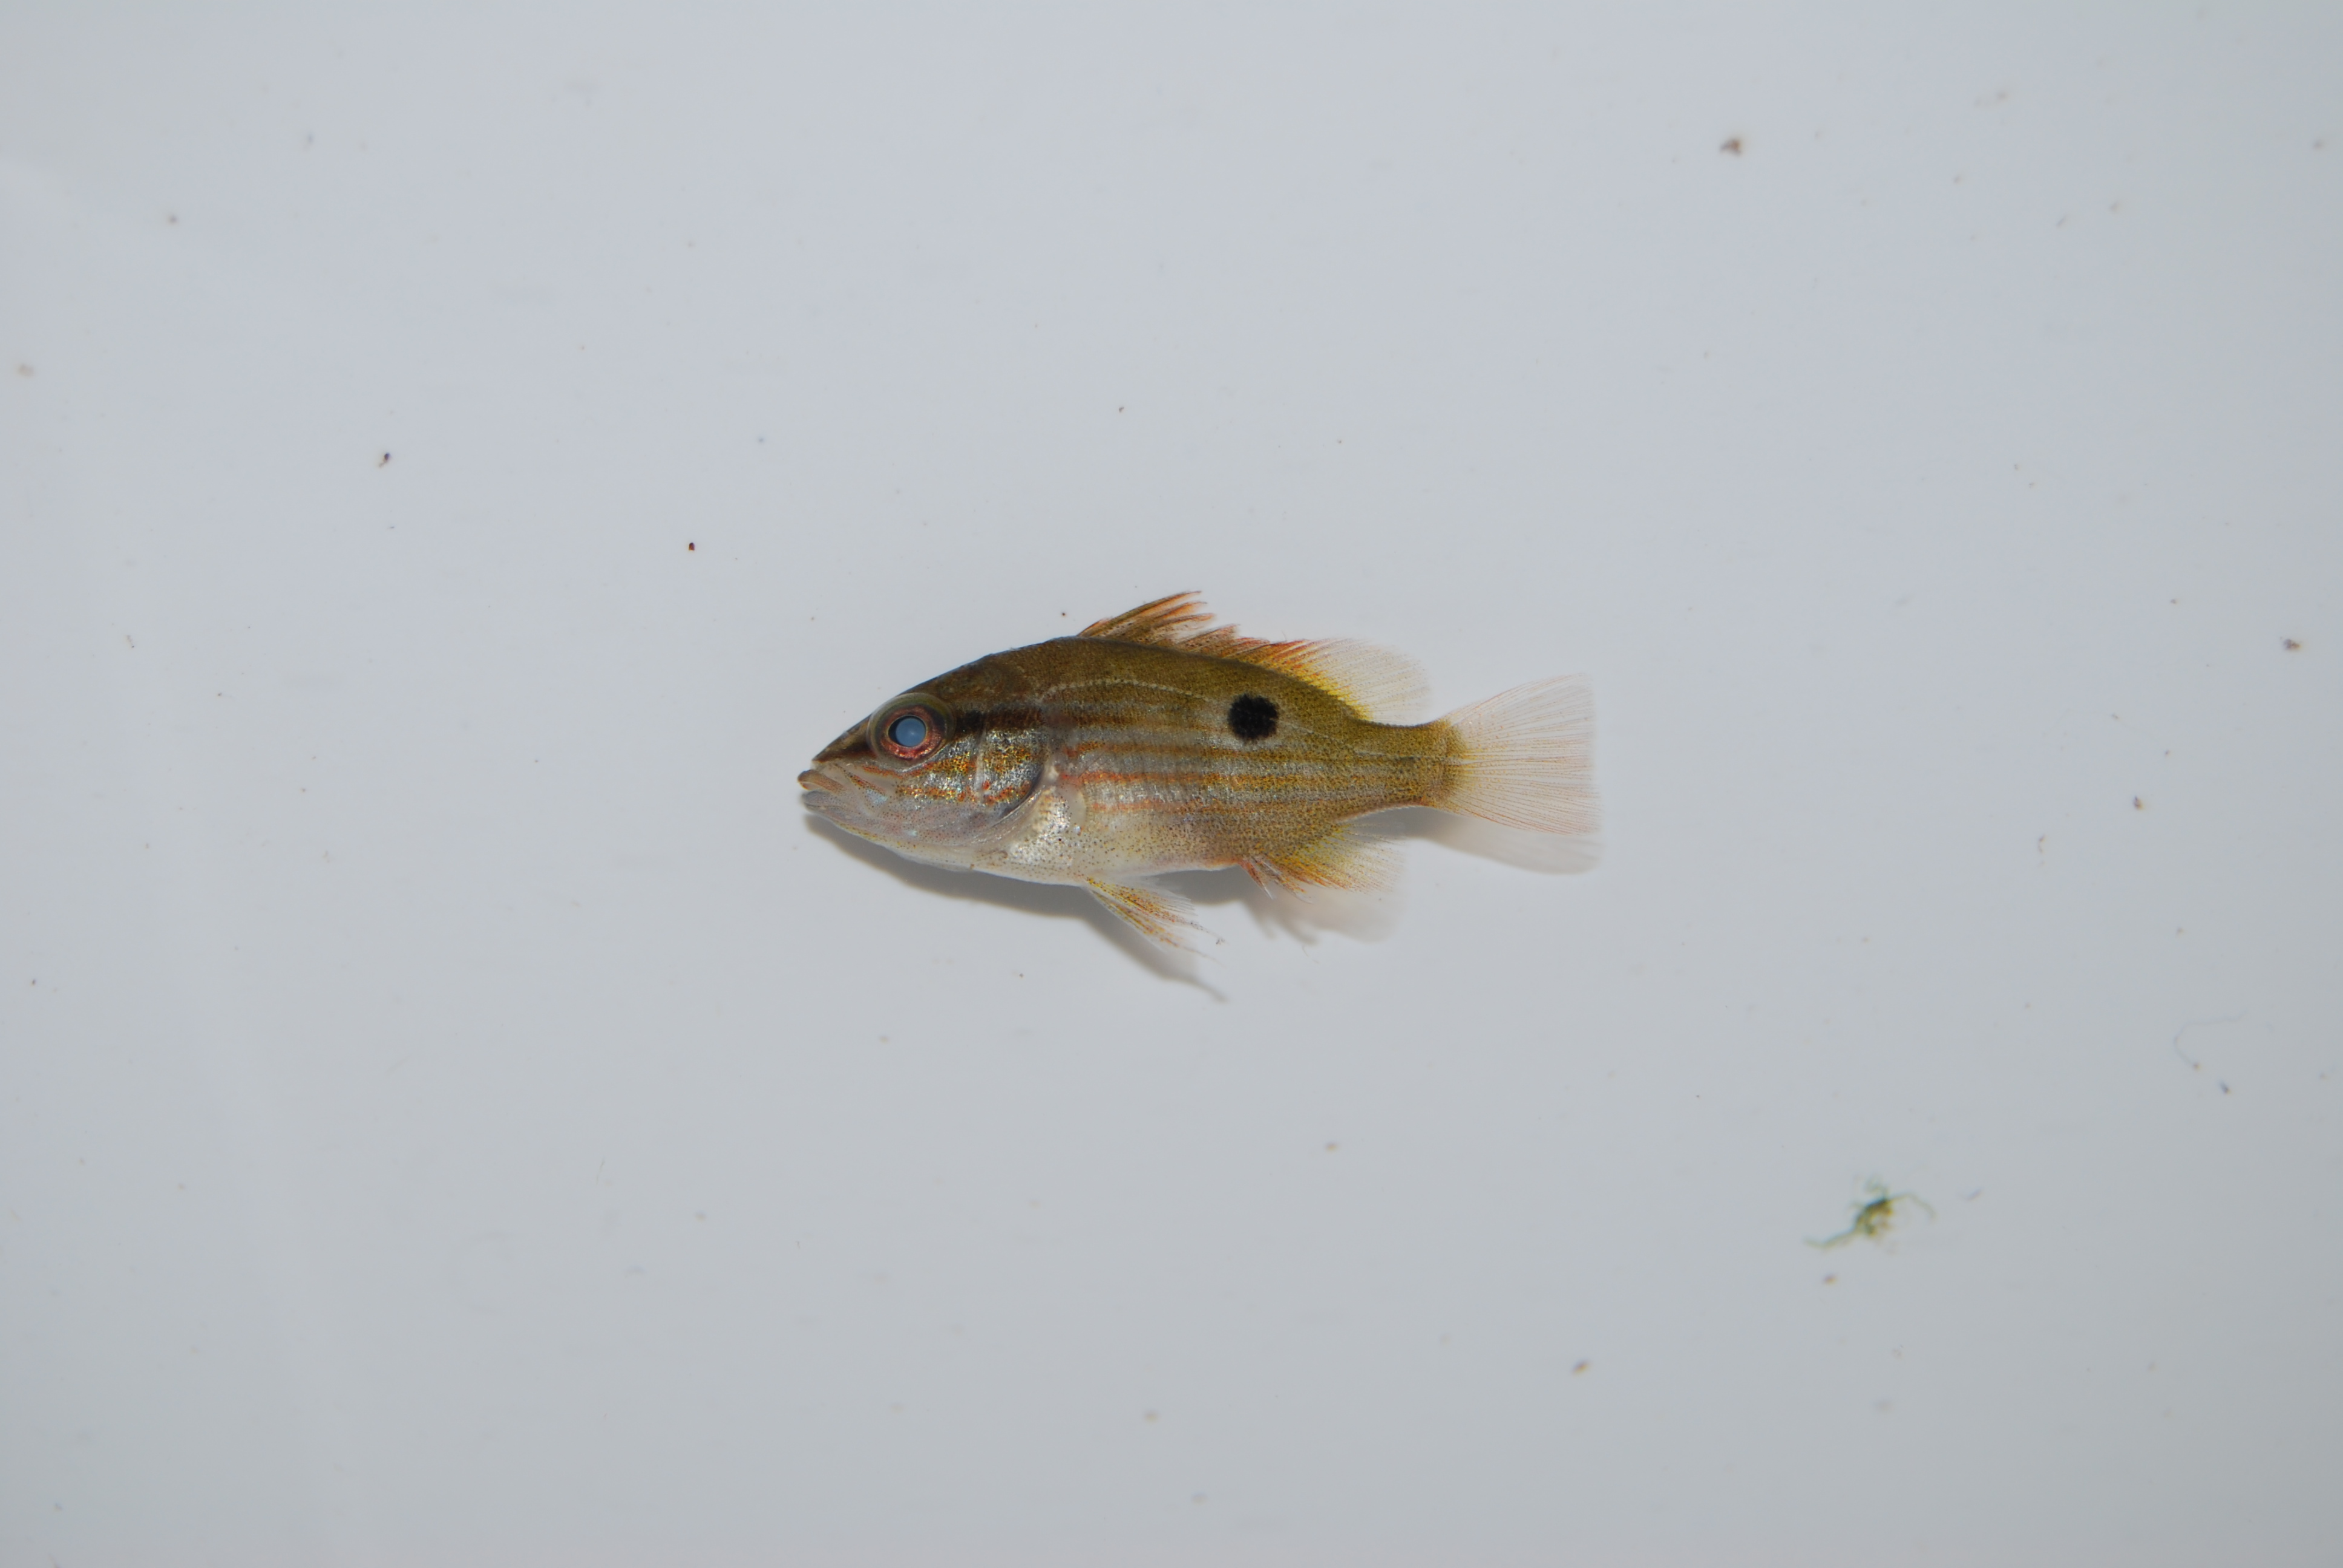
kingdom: Animalia
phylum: Chordata
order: Perciformes
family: Lutjanidae
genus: Lutjanus
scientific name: Lutjanus fulviflamma
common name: Blackspot snapper
